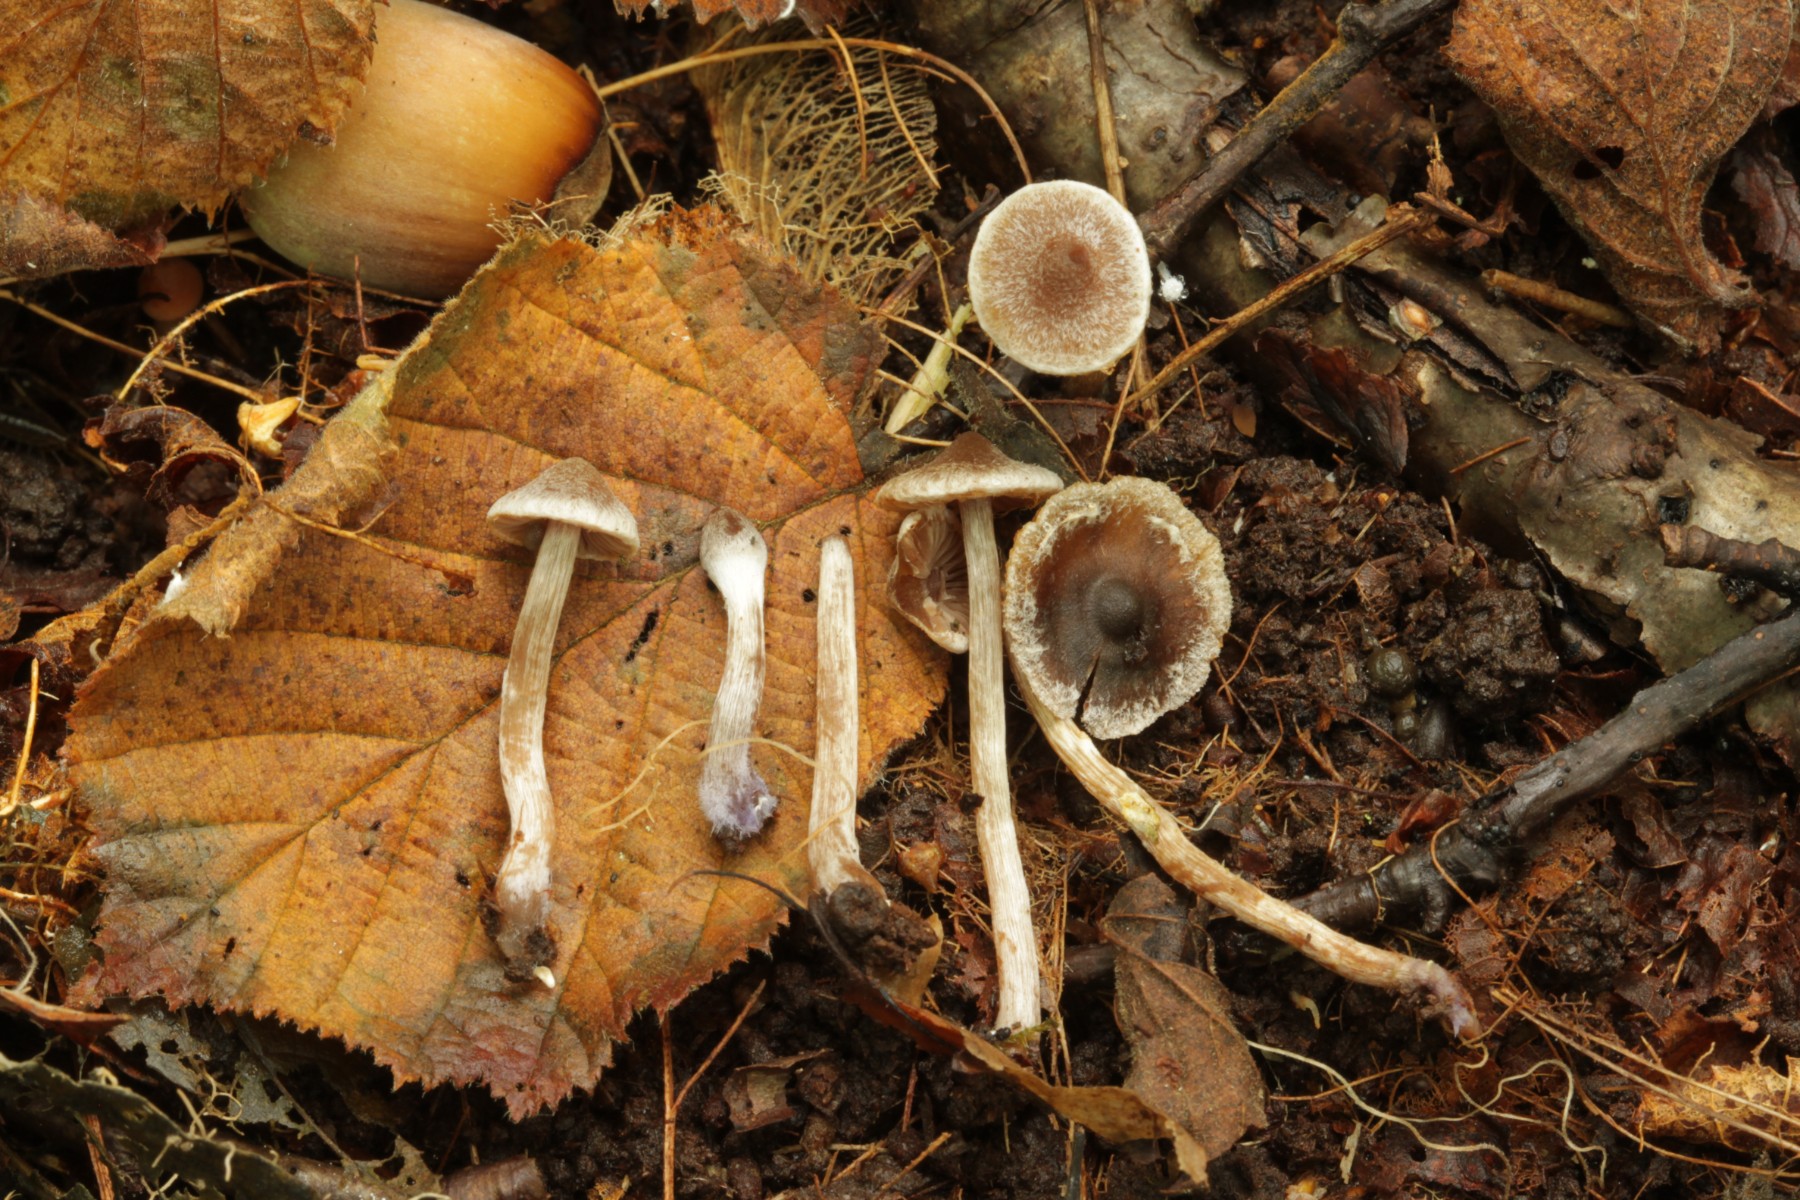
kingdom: Fungi
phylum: Basidiomycota
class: Agaricomycetes
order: Agaricales
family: Cortinariaceae
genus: Cortinarius
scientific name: Cortinarius
